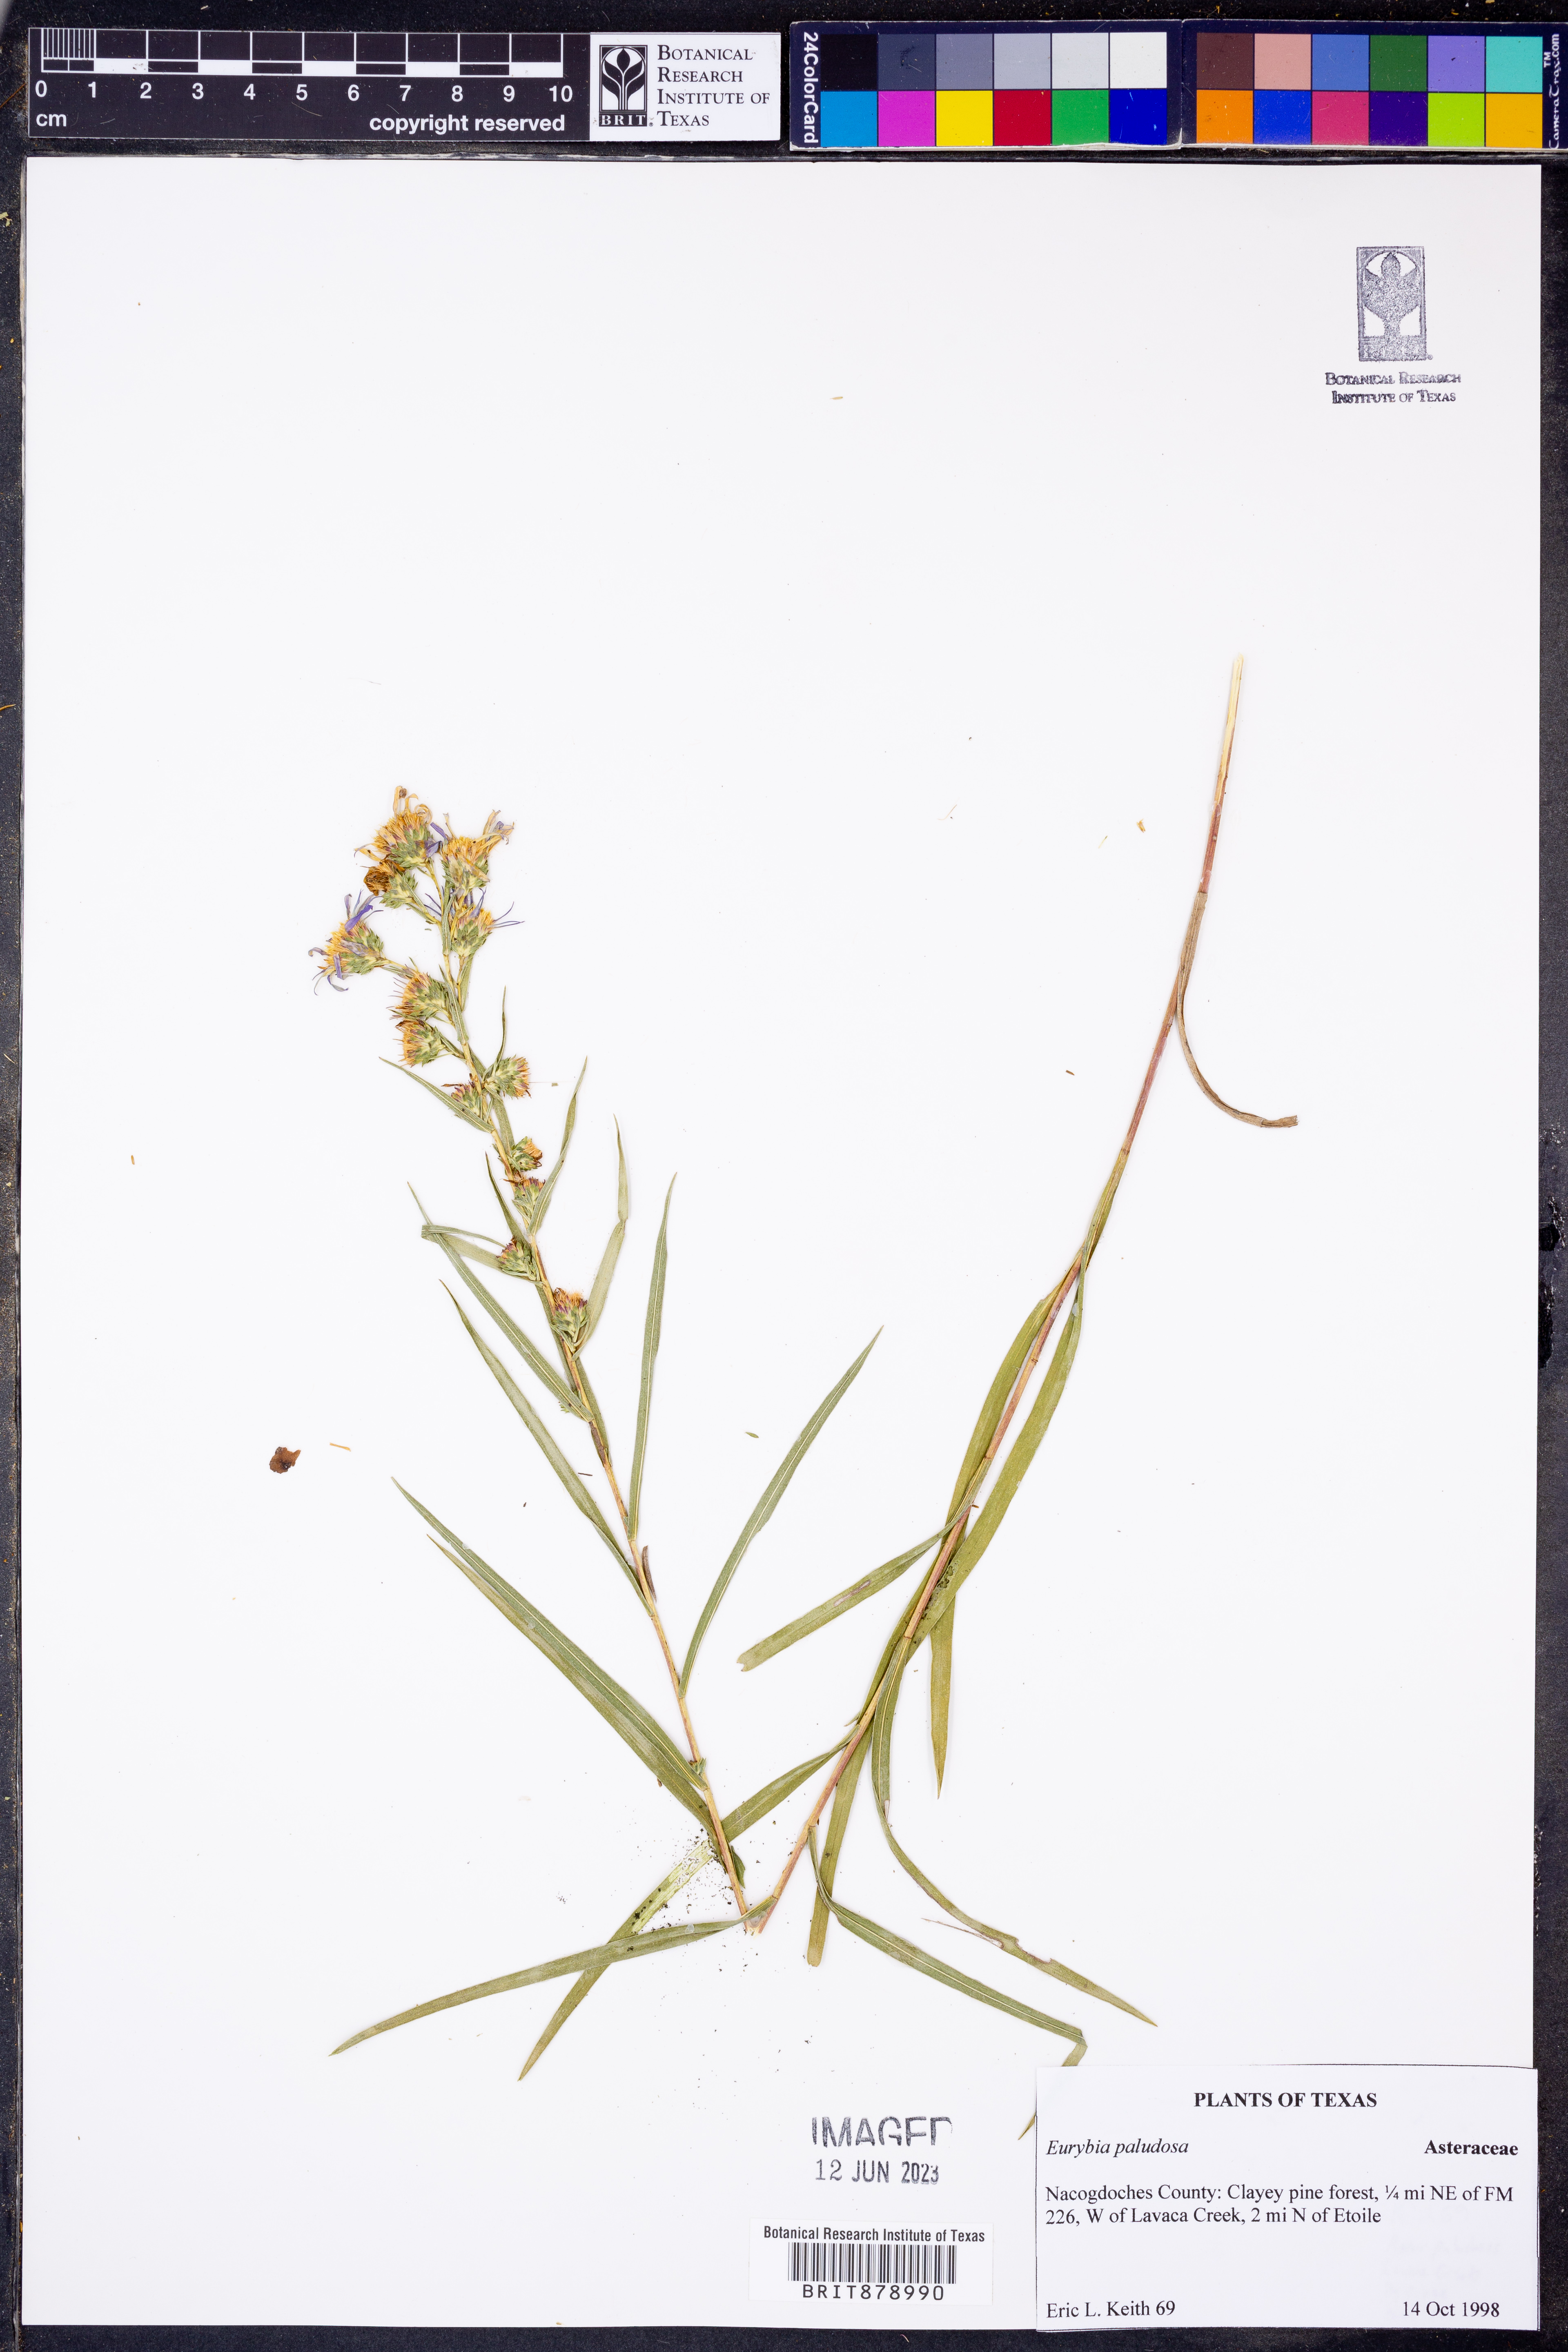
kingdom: Plantae
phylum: Tracheophyta
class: Magnoliopsida
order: Asterales
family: Asteraceae
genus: Eurybia
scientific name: Eurybia paludosa
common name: Southern swamp aster
